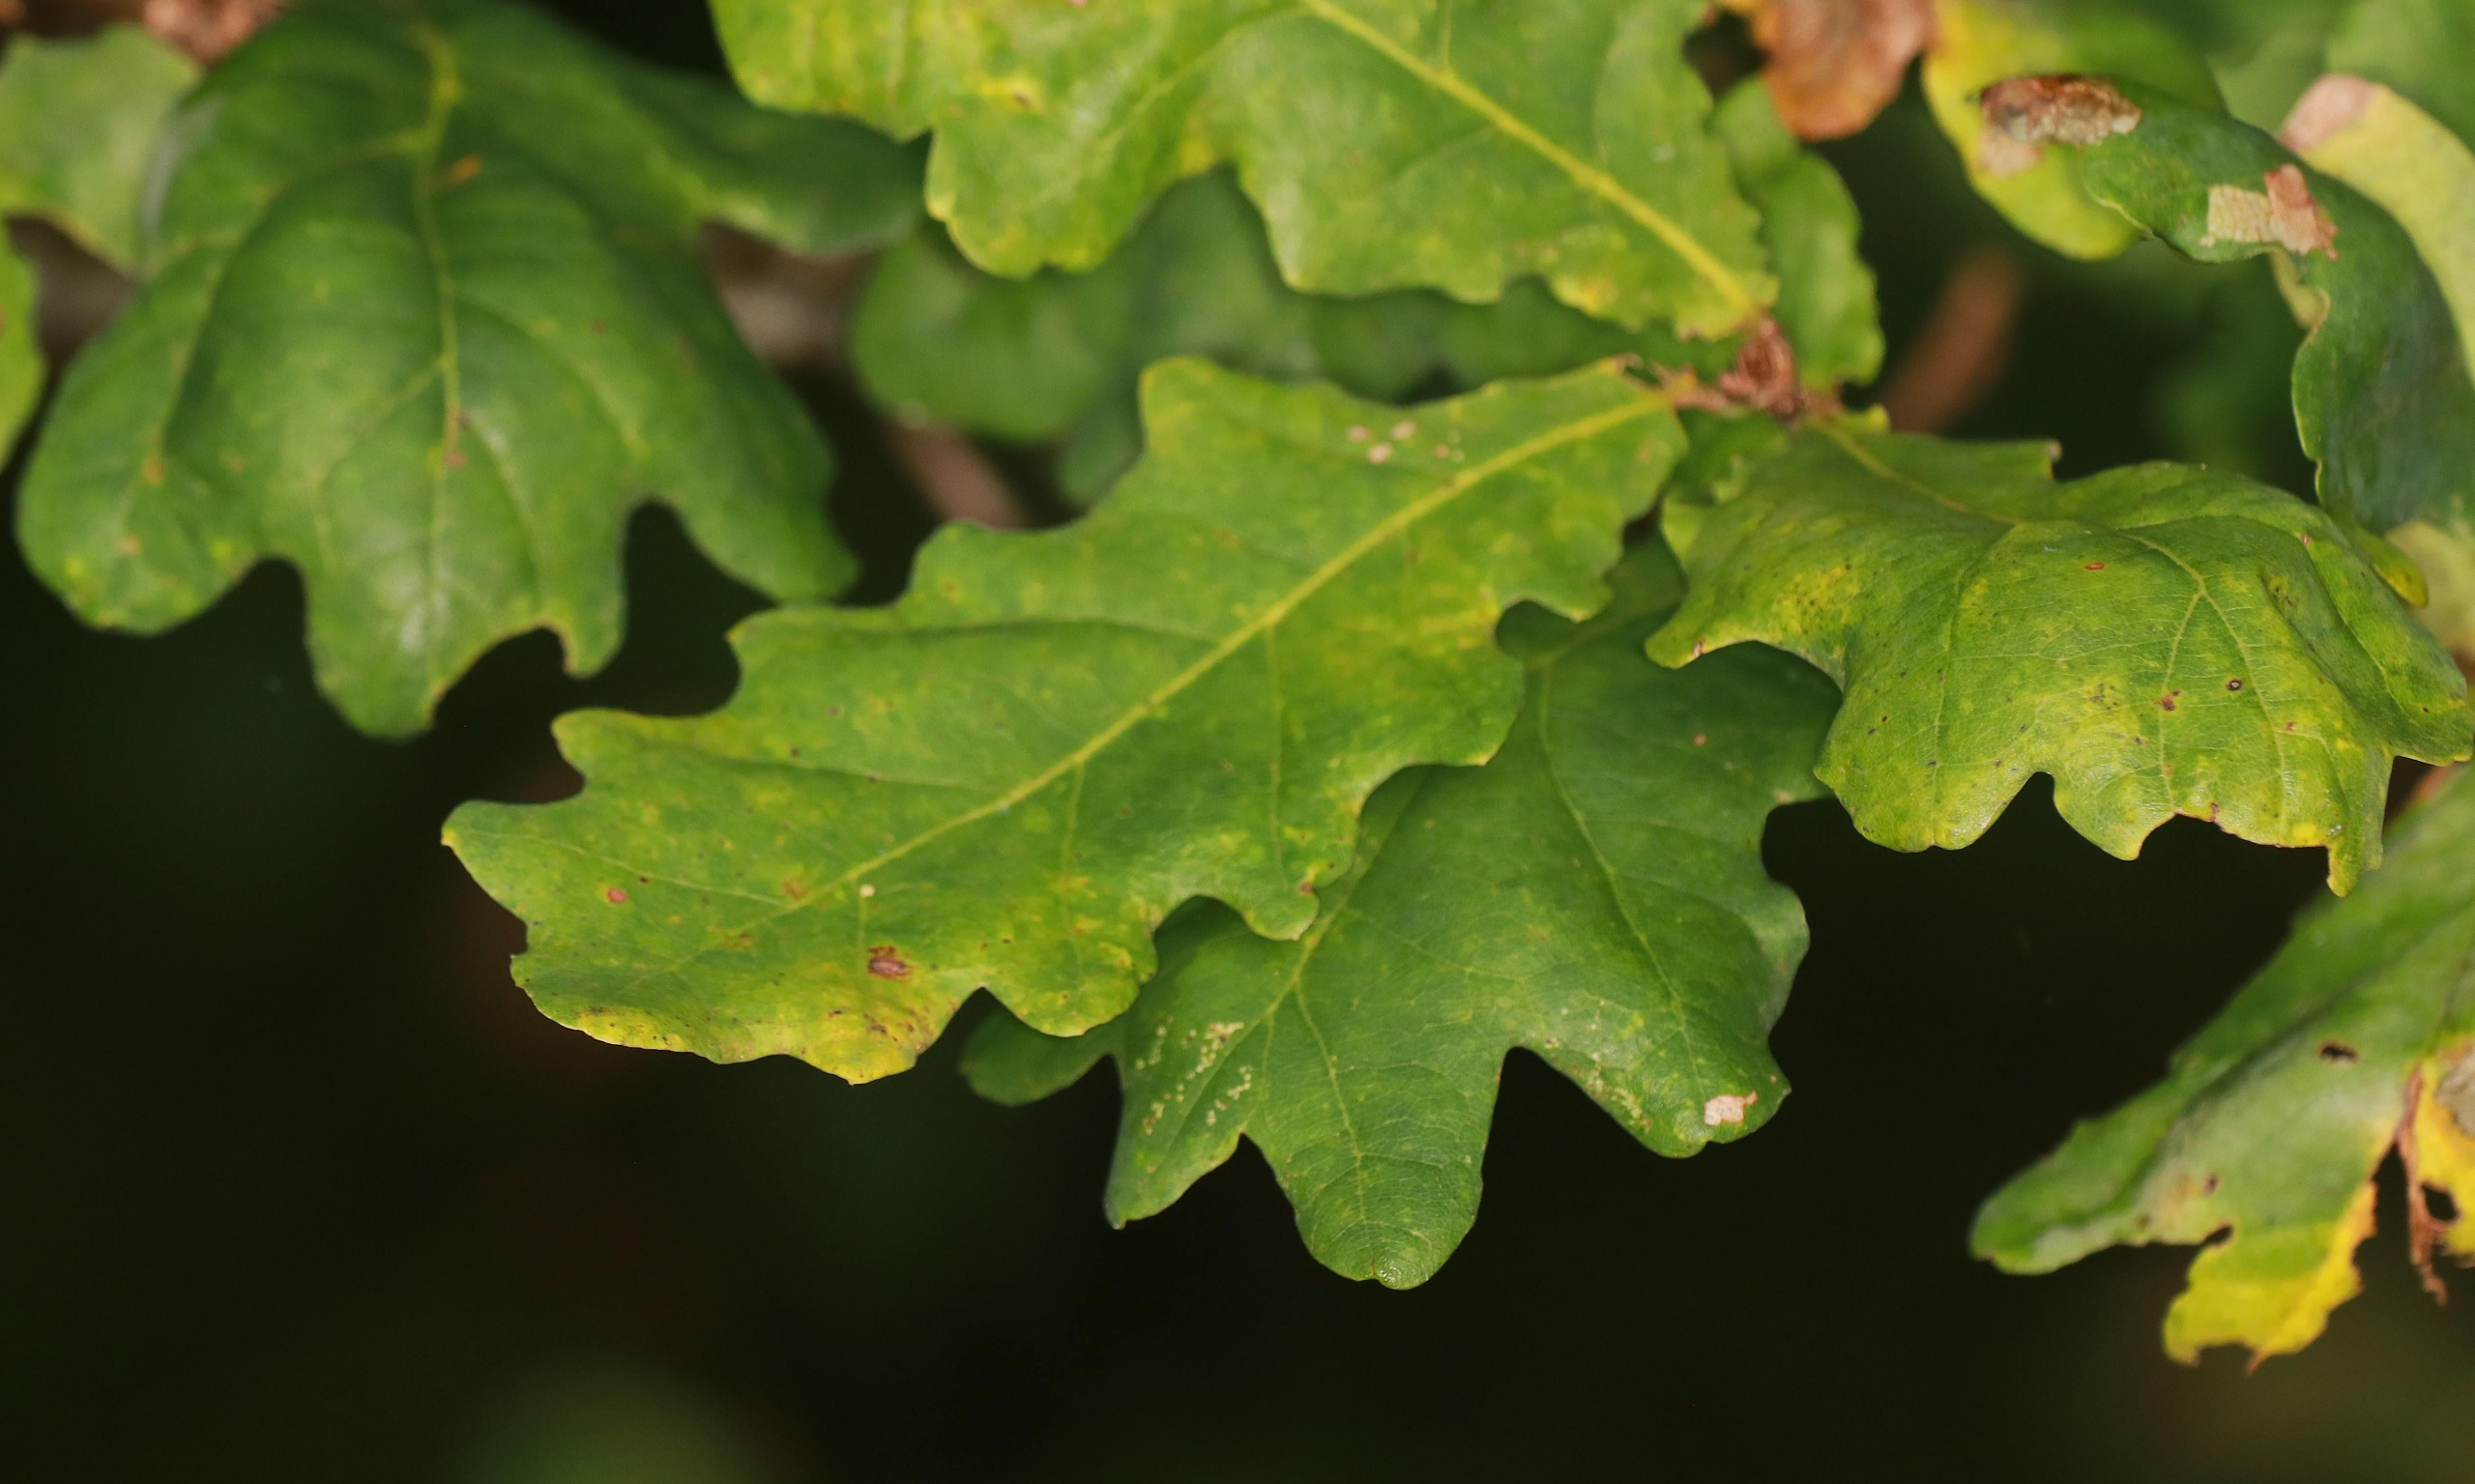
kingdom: Plantae
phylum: Tracheophyta
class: Magnoliopsida
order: Fagales
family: Fagaceae
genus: Quercus
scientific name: Quercus robur
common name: Stilk-eg/almindelig eg
